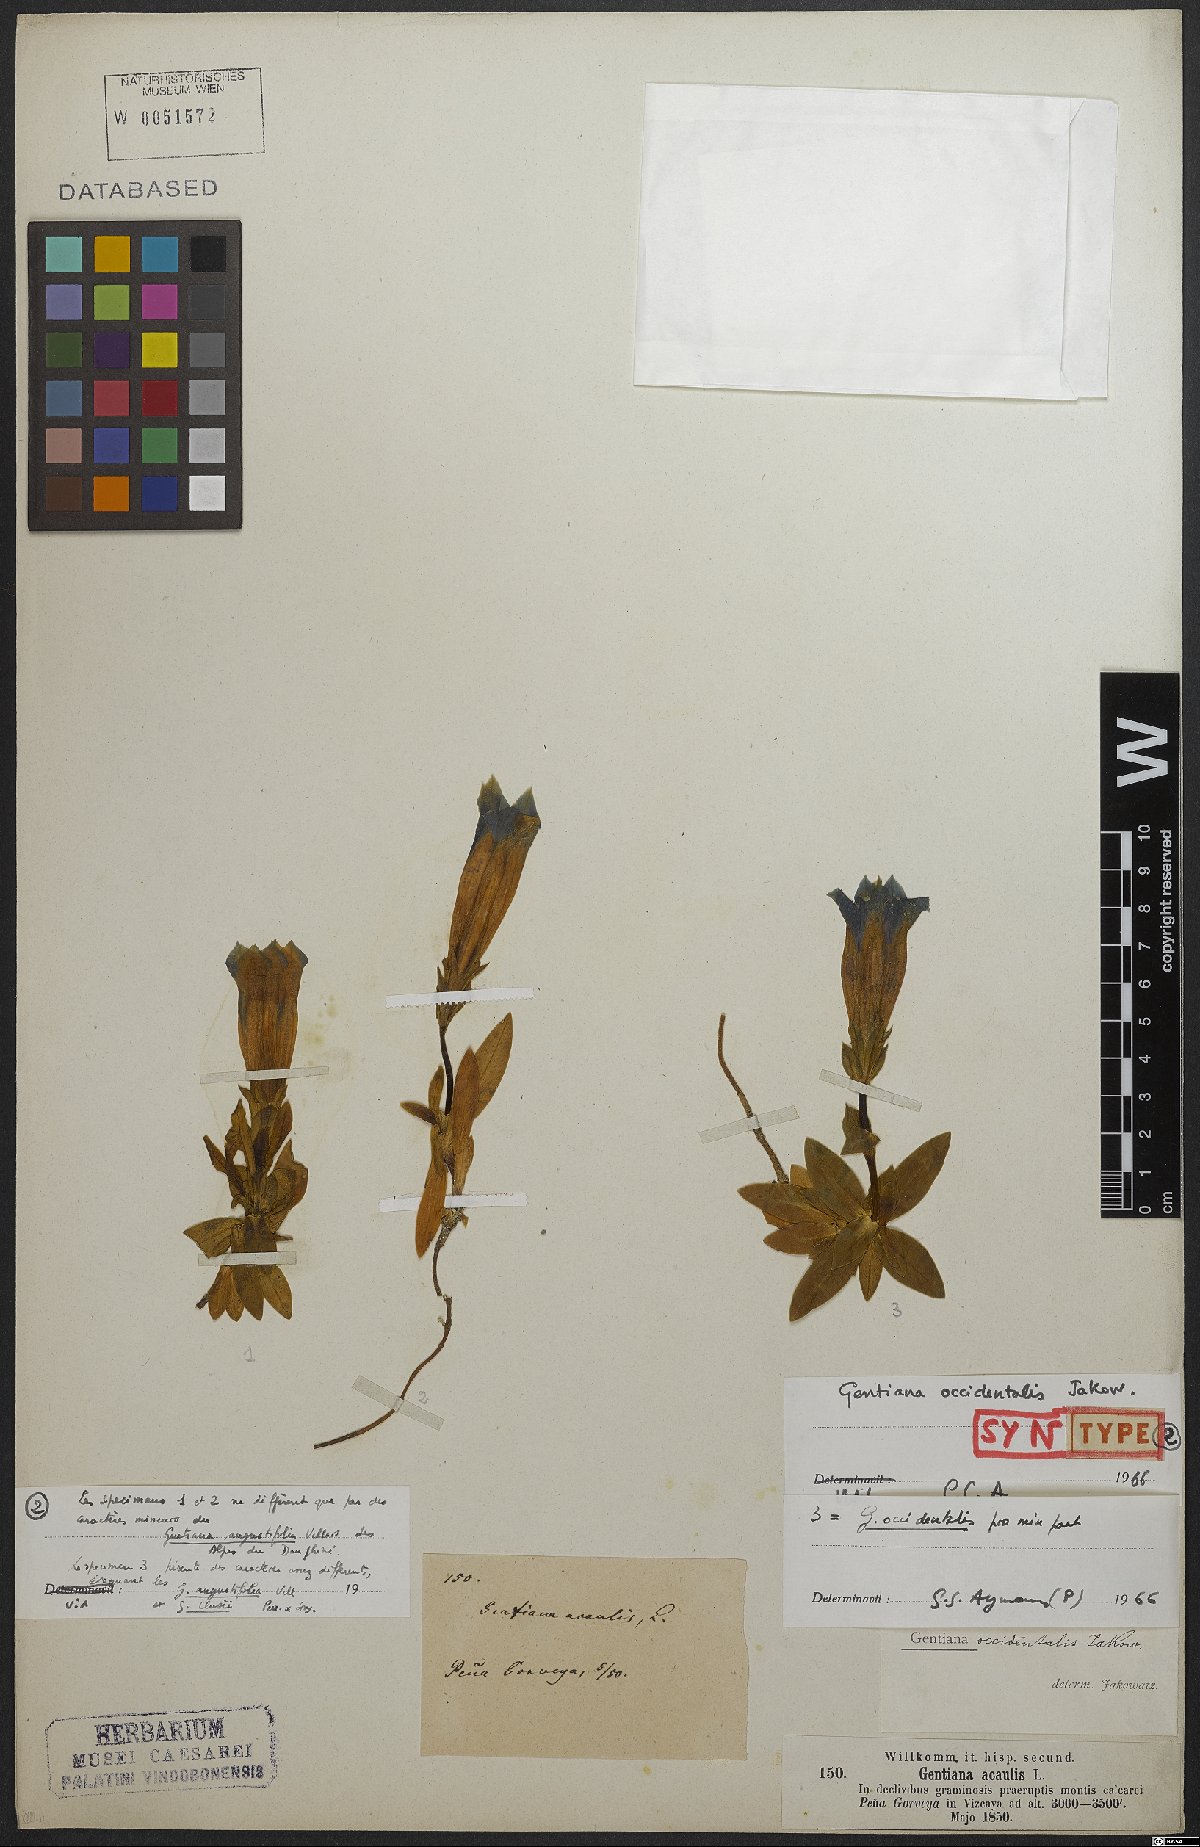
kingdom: Plantae
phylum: Tracheophyta
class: Magnoliopsida
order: Gentianales
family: Gentianaceae
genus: Gentiana
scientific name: Gentiana angustifolia
